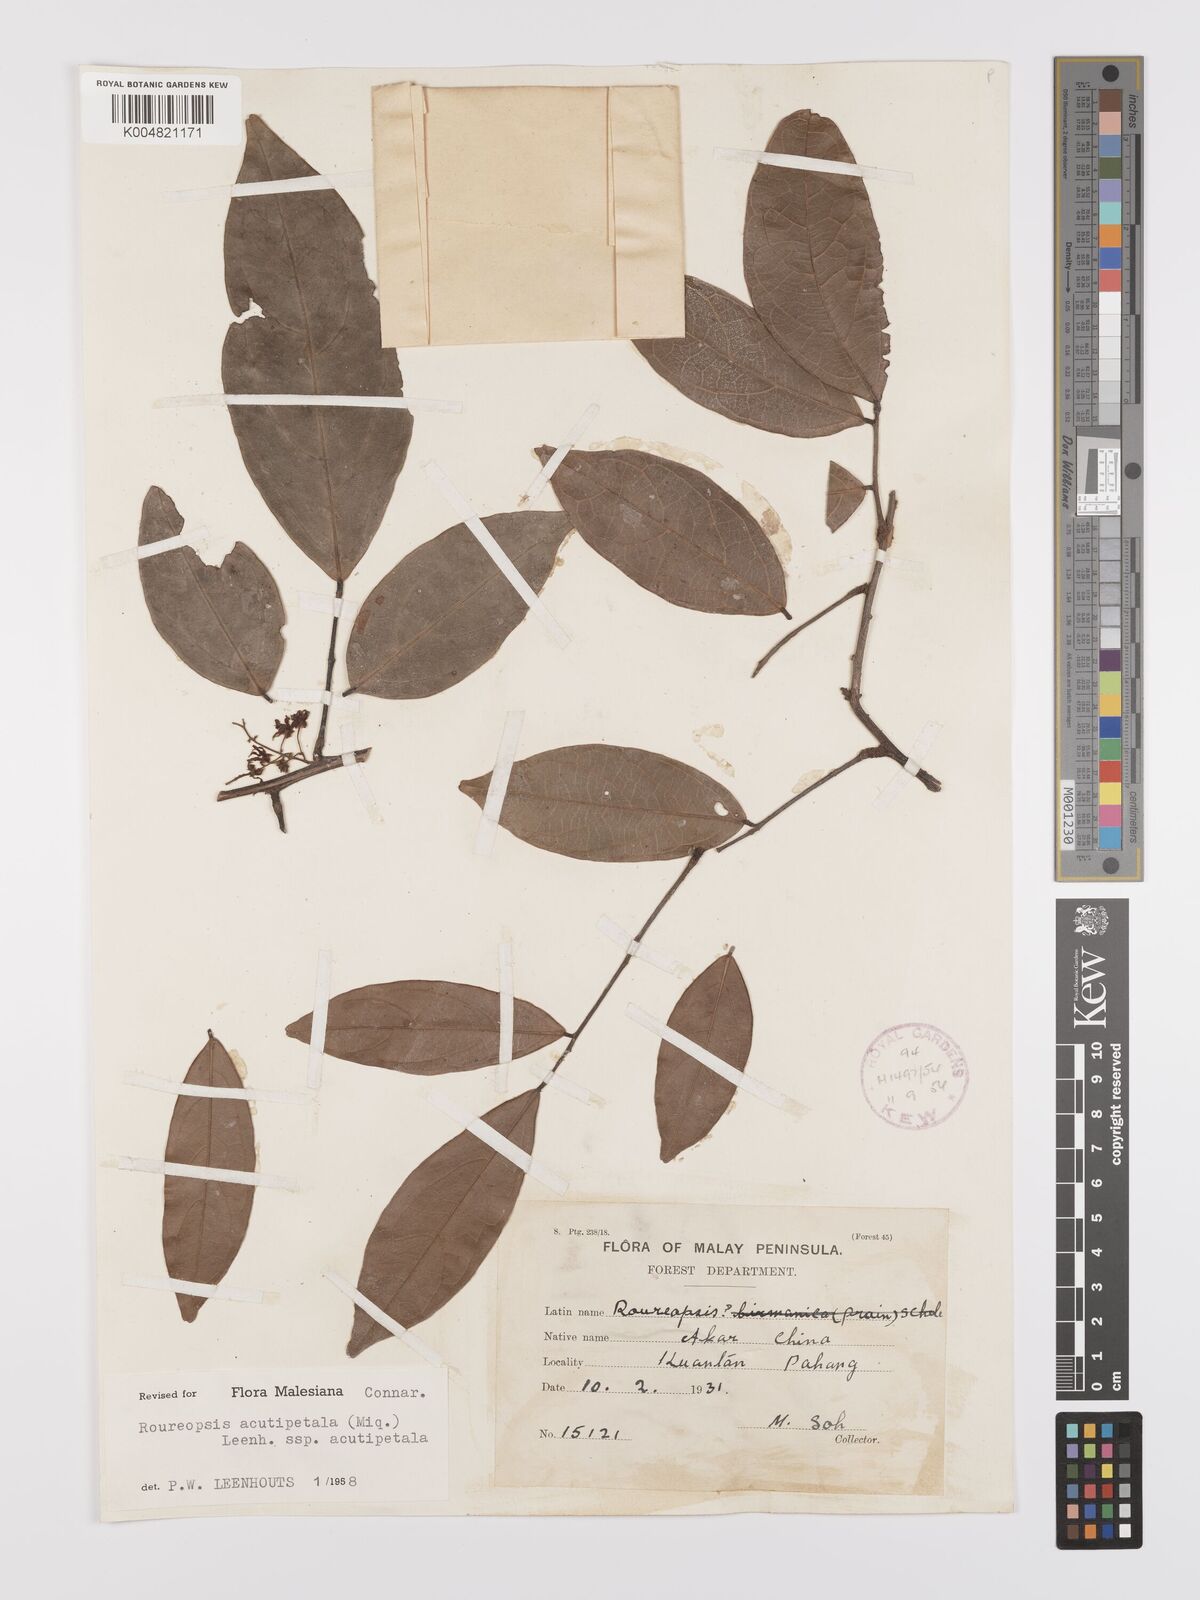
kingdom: Plantae
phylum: Tracheophyta
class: Magnoliopsida
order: Oxalidales
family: Connaraceae
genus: Rourea
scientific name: Rourea acutipetala
